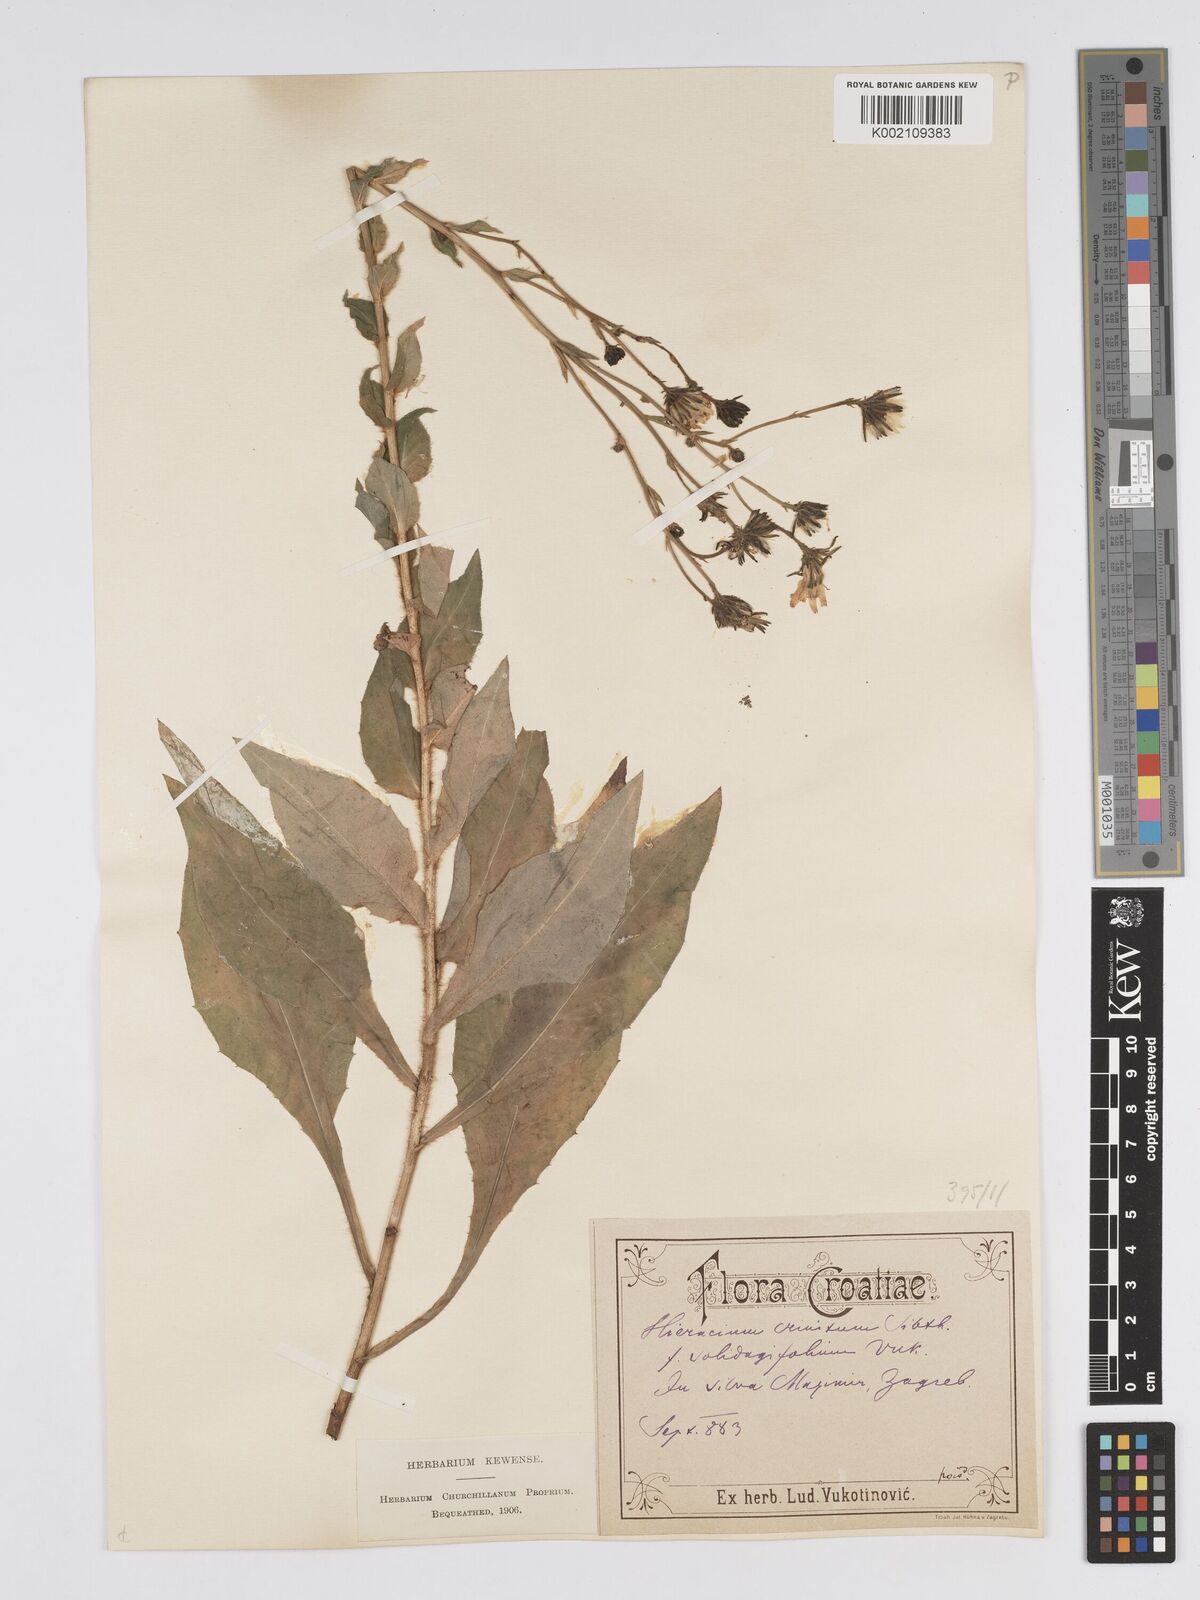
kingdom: Plantae
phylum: Tracheophyta
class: Magnoliopsida
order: Asterales
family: Asteraceae
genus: Hieracium
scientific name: Hieracium racemosum
